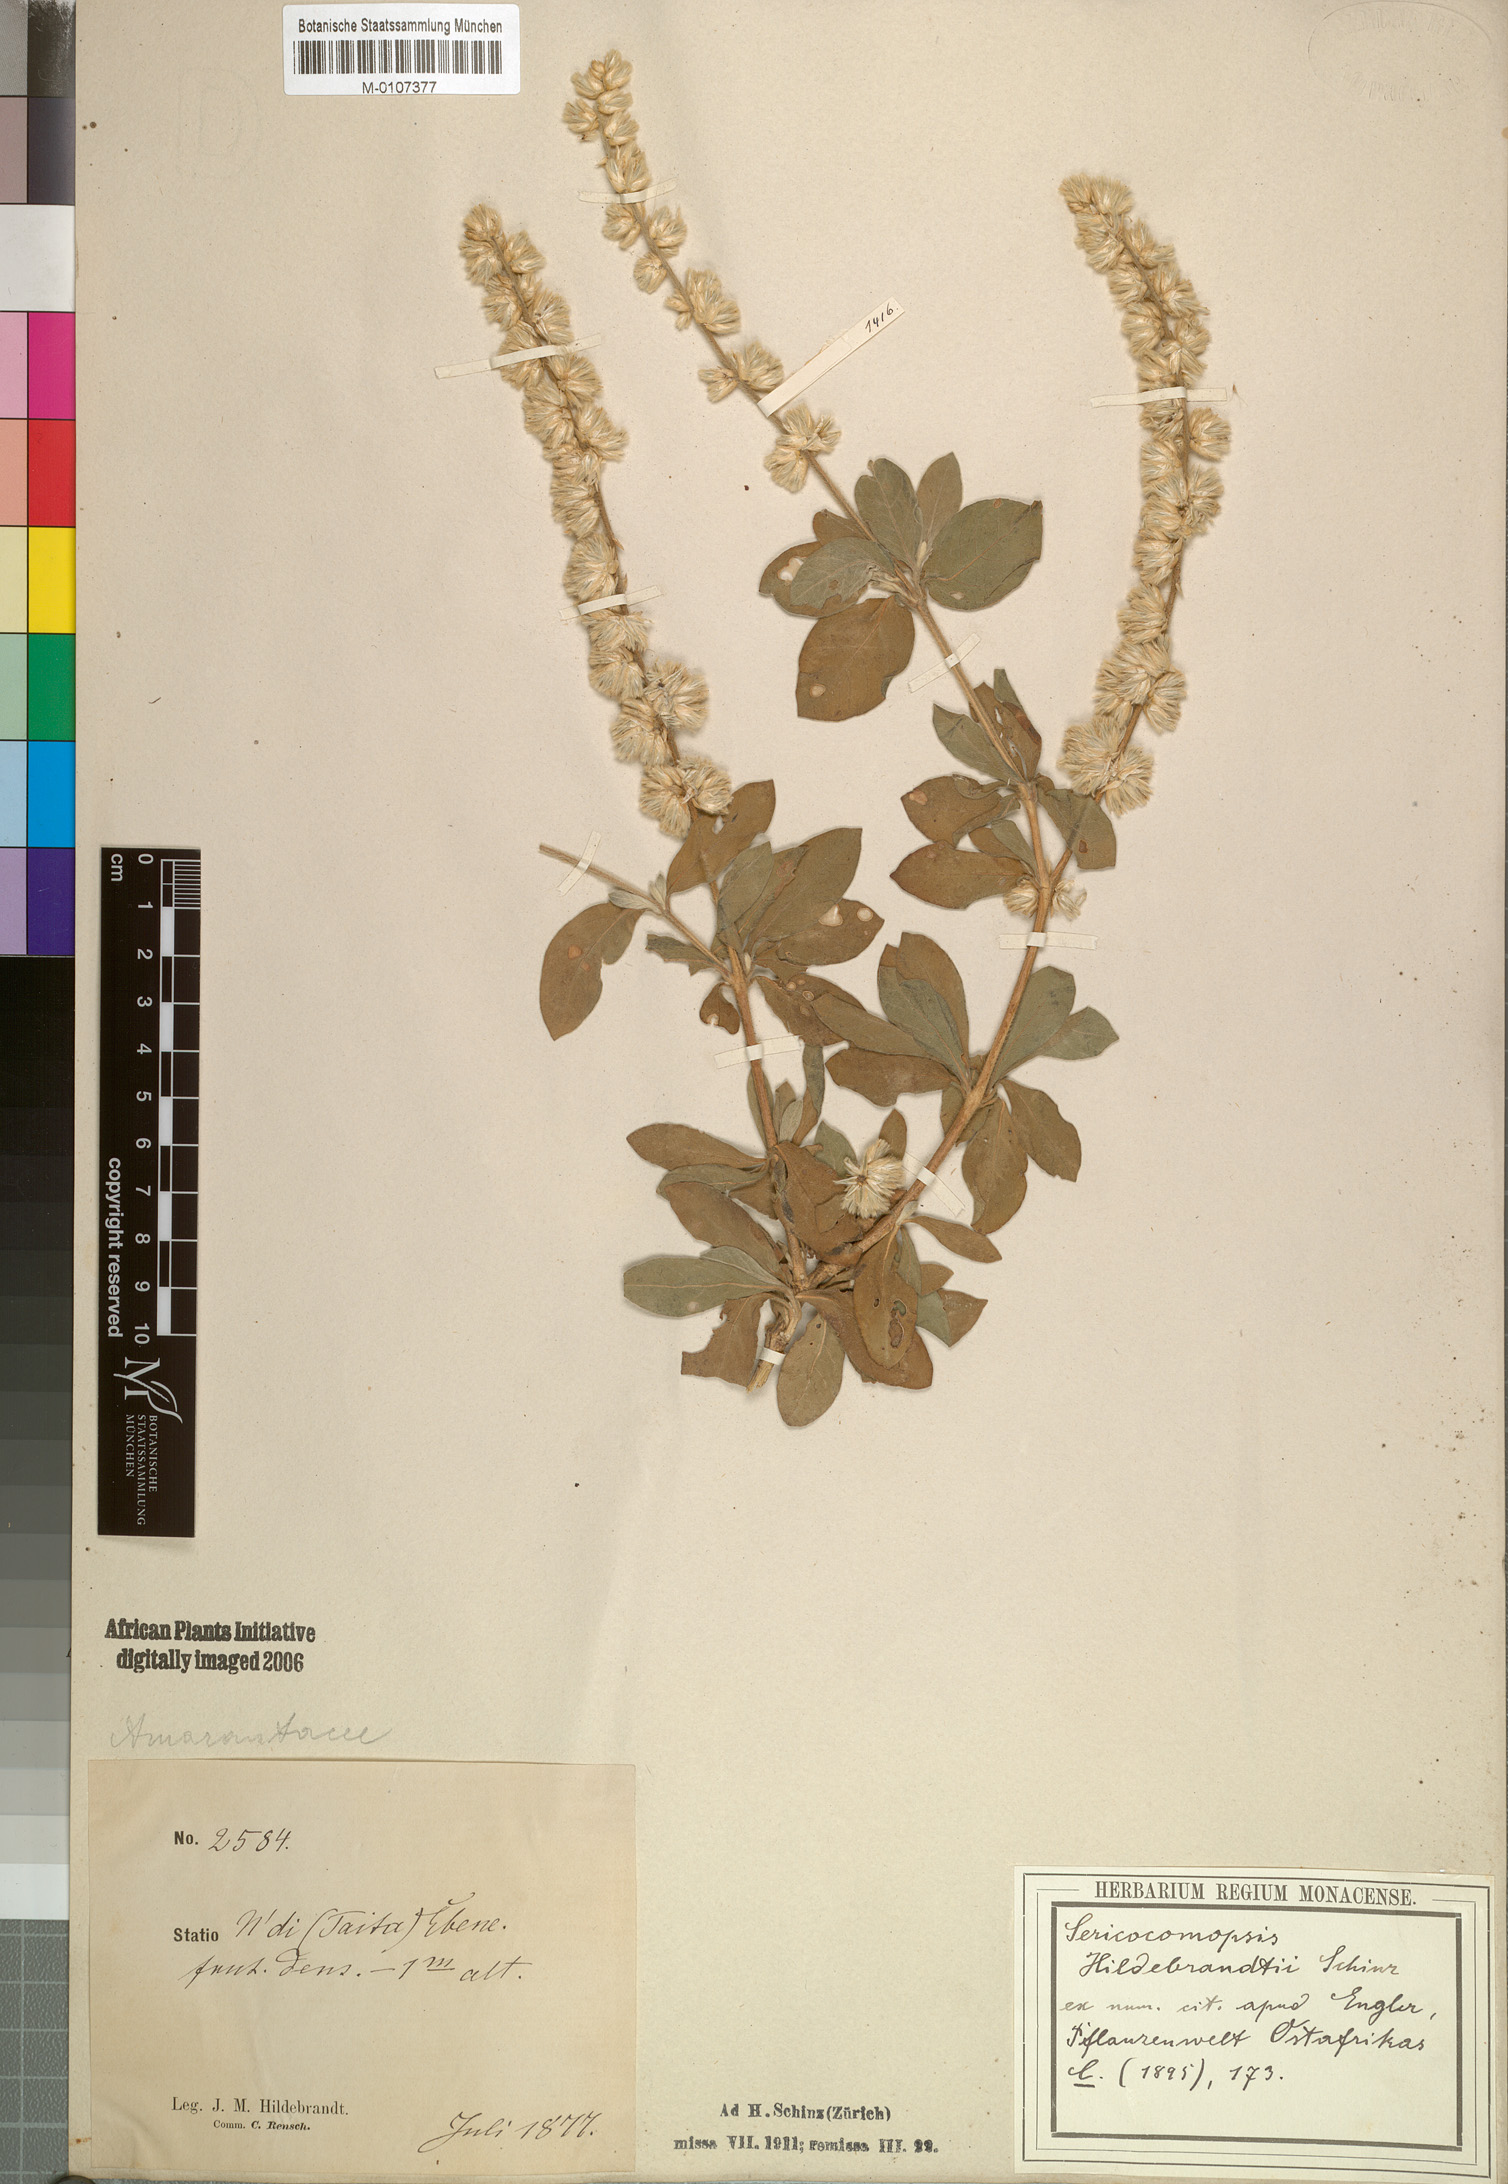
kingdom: Plantae
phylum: Tracheophyta
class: Magnoliopsida
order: Caryophyllales
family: Amaranthaceae
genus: Sericocomopsis
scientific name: Sericocomopsis hildebrandtii
